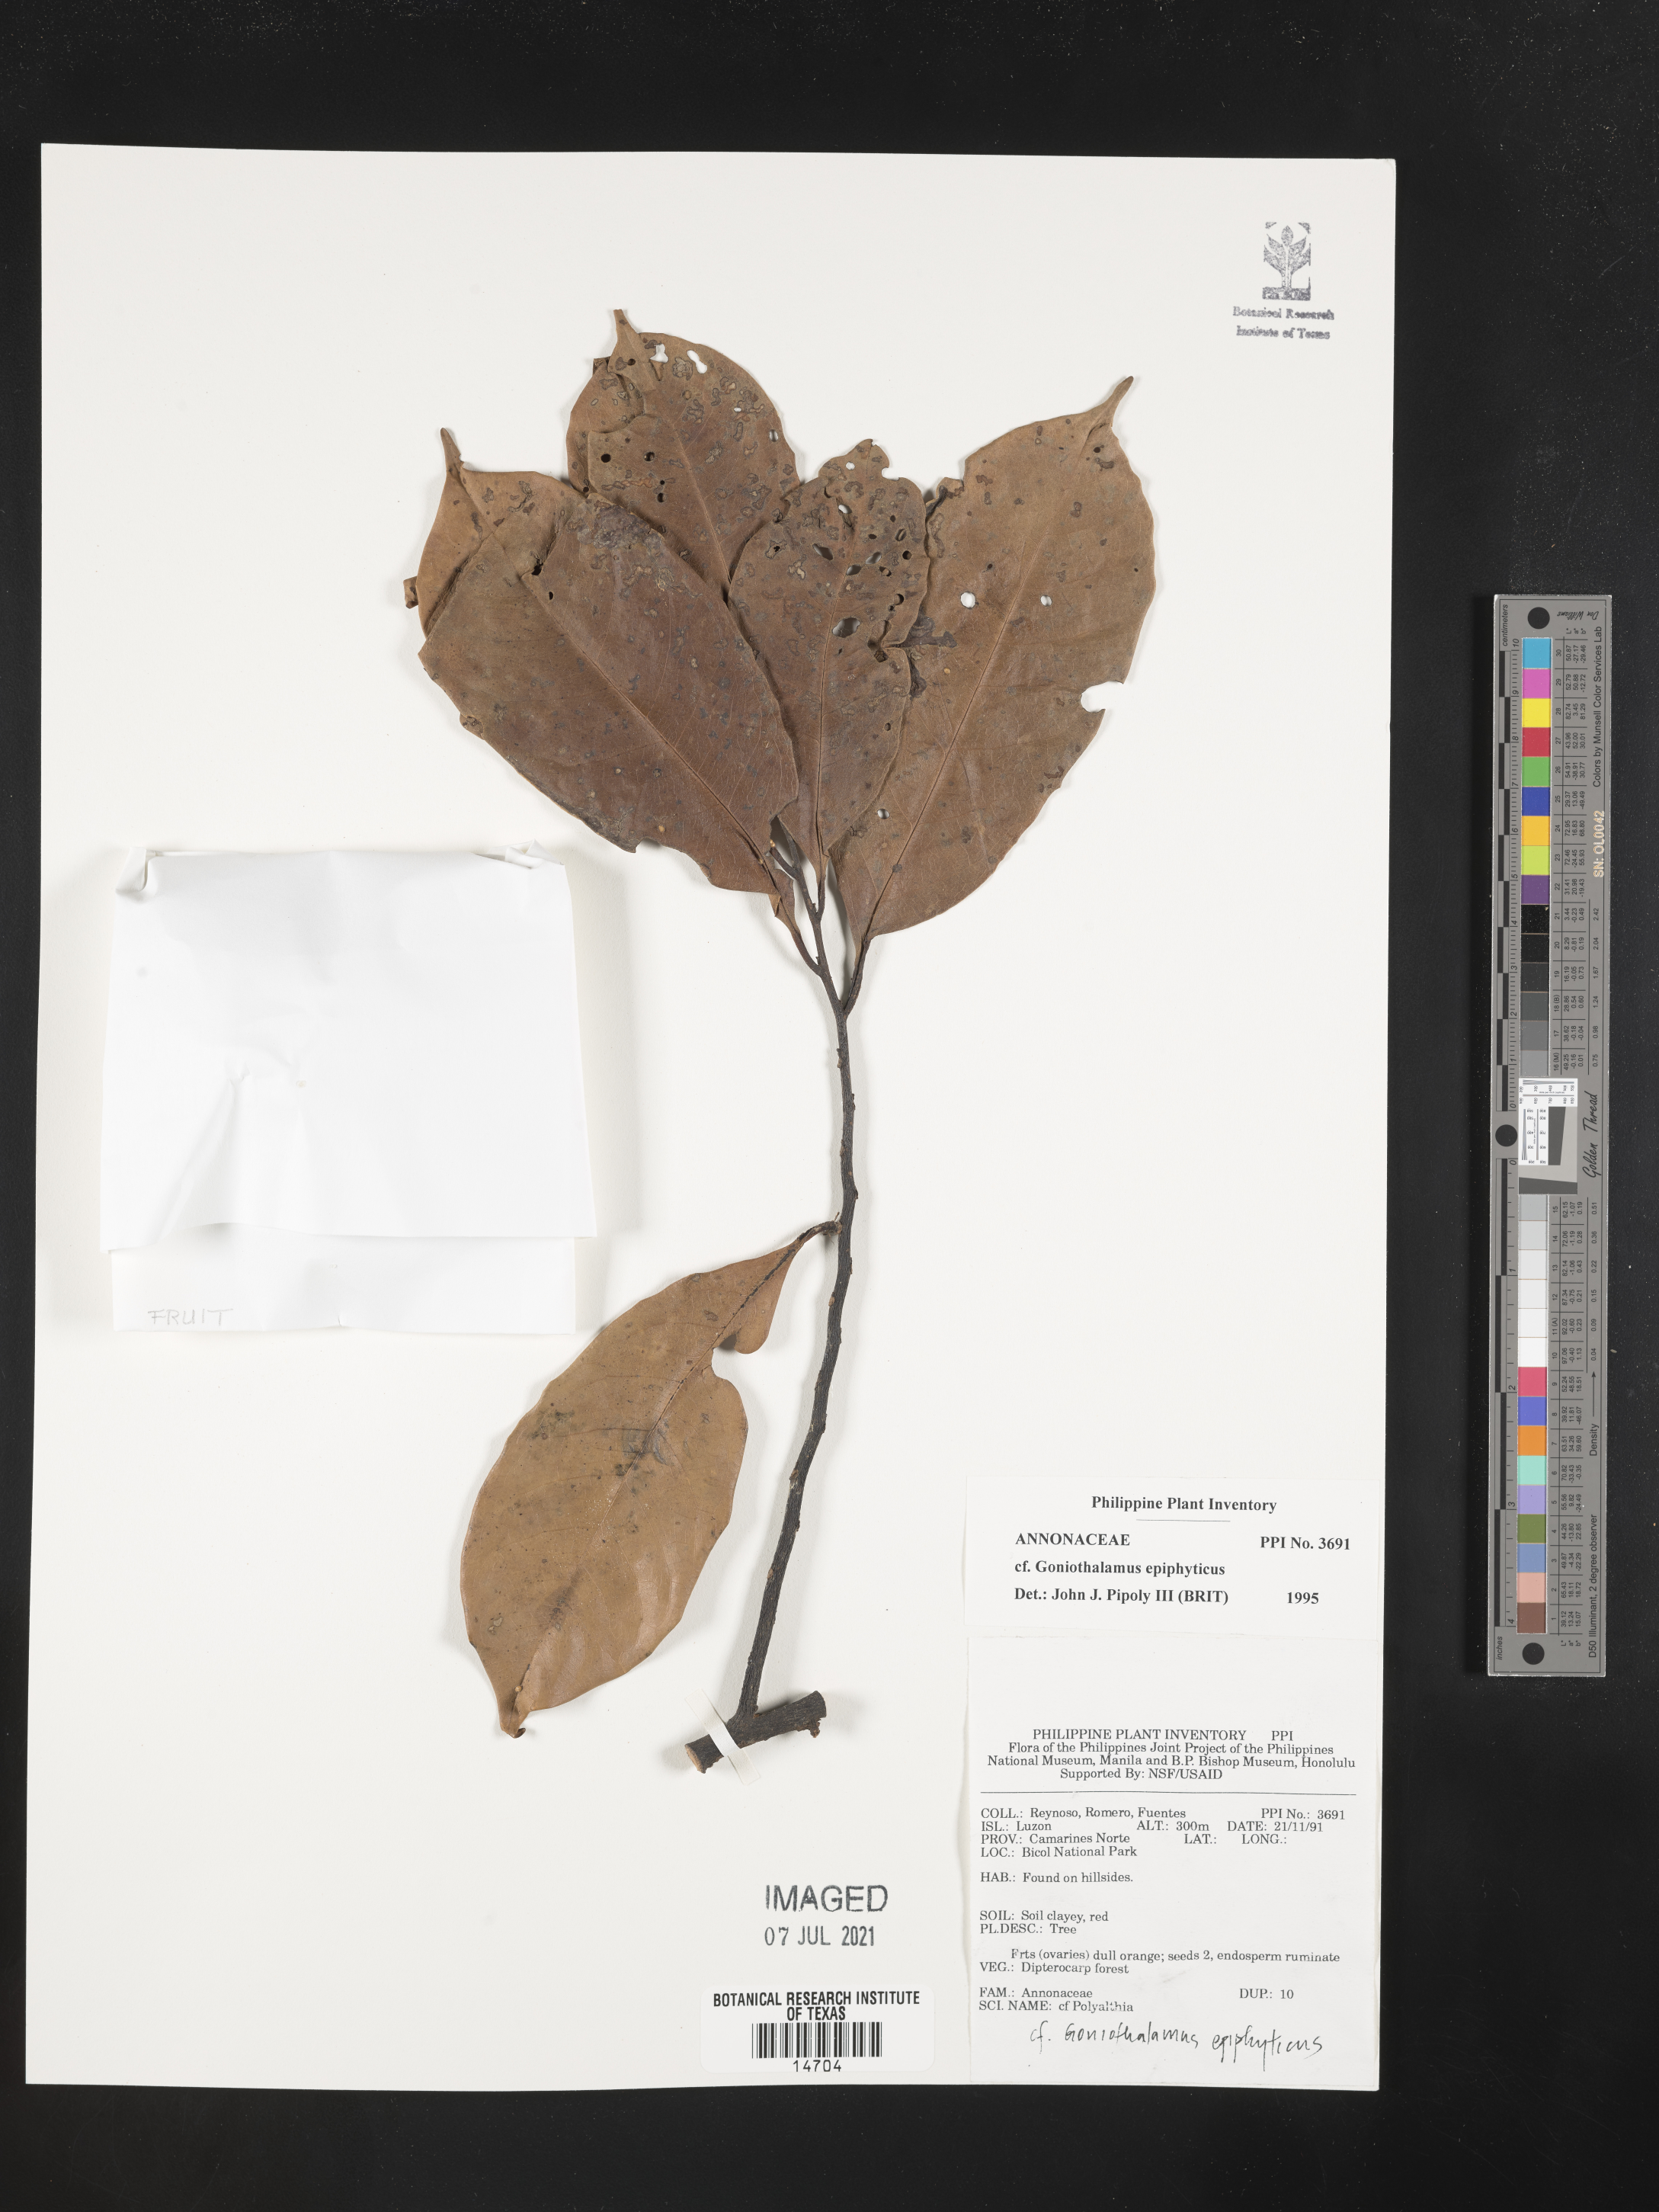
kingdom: Plantae
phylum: Tracheophyta
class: Magnoliopsida
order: Magnoliales
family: Annonaceae
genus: Goniothalamus
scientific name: Goniothalamus epiphyticus
